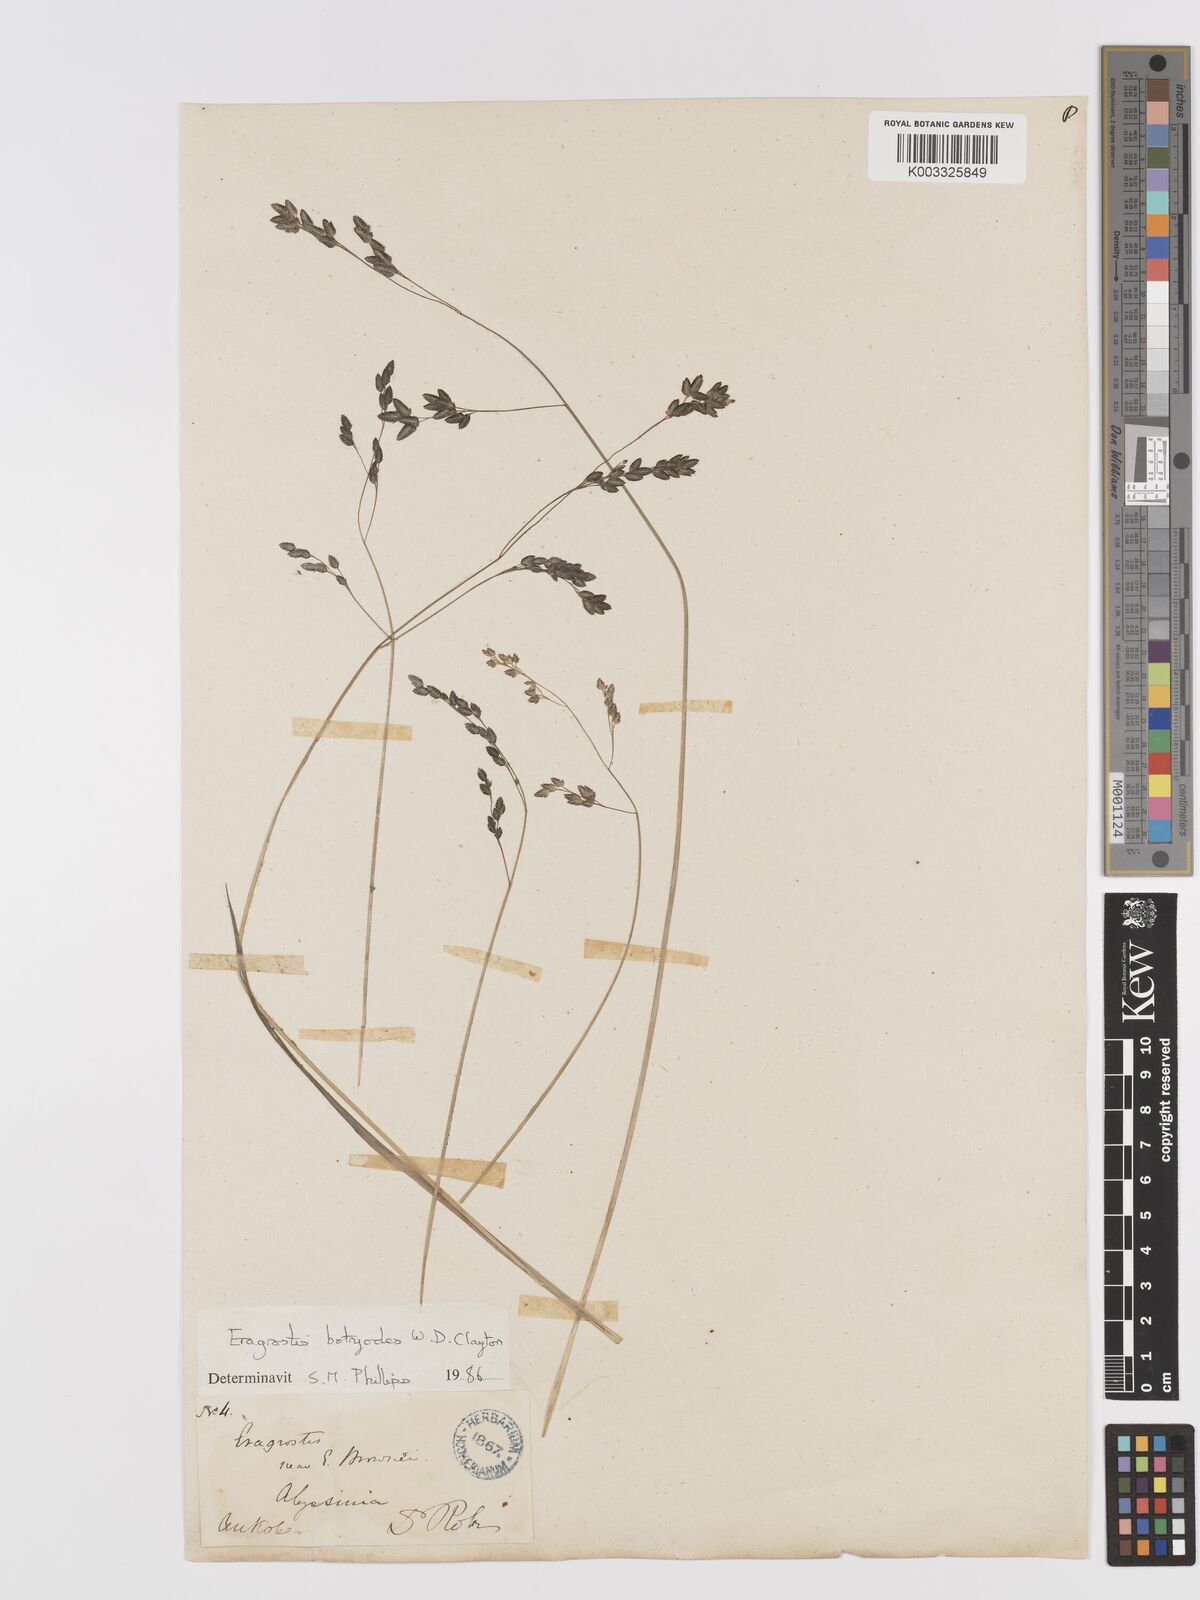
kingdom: Plantae
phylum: Tracheophyta
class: Liliopsida
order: Poales
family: Poaceae
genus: Eragrostis
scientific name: Eragrostis botryodes
